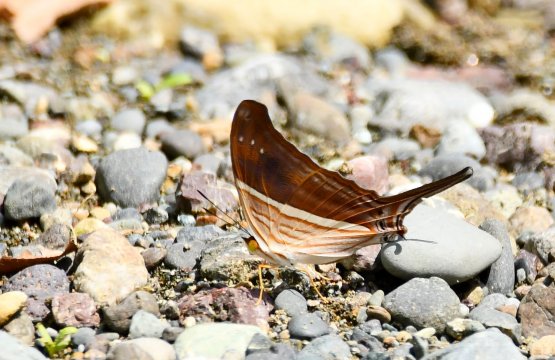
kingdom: Animalia
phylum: Arthropoda
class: Insecta
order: Lepidoptera
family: Nymphalidae
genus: Marpesia
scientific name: Marpesia chiron
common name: Many-banded Daggerwing
